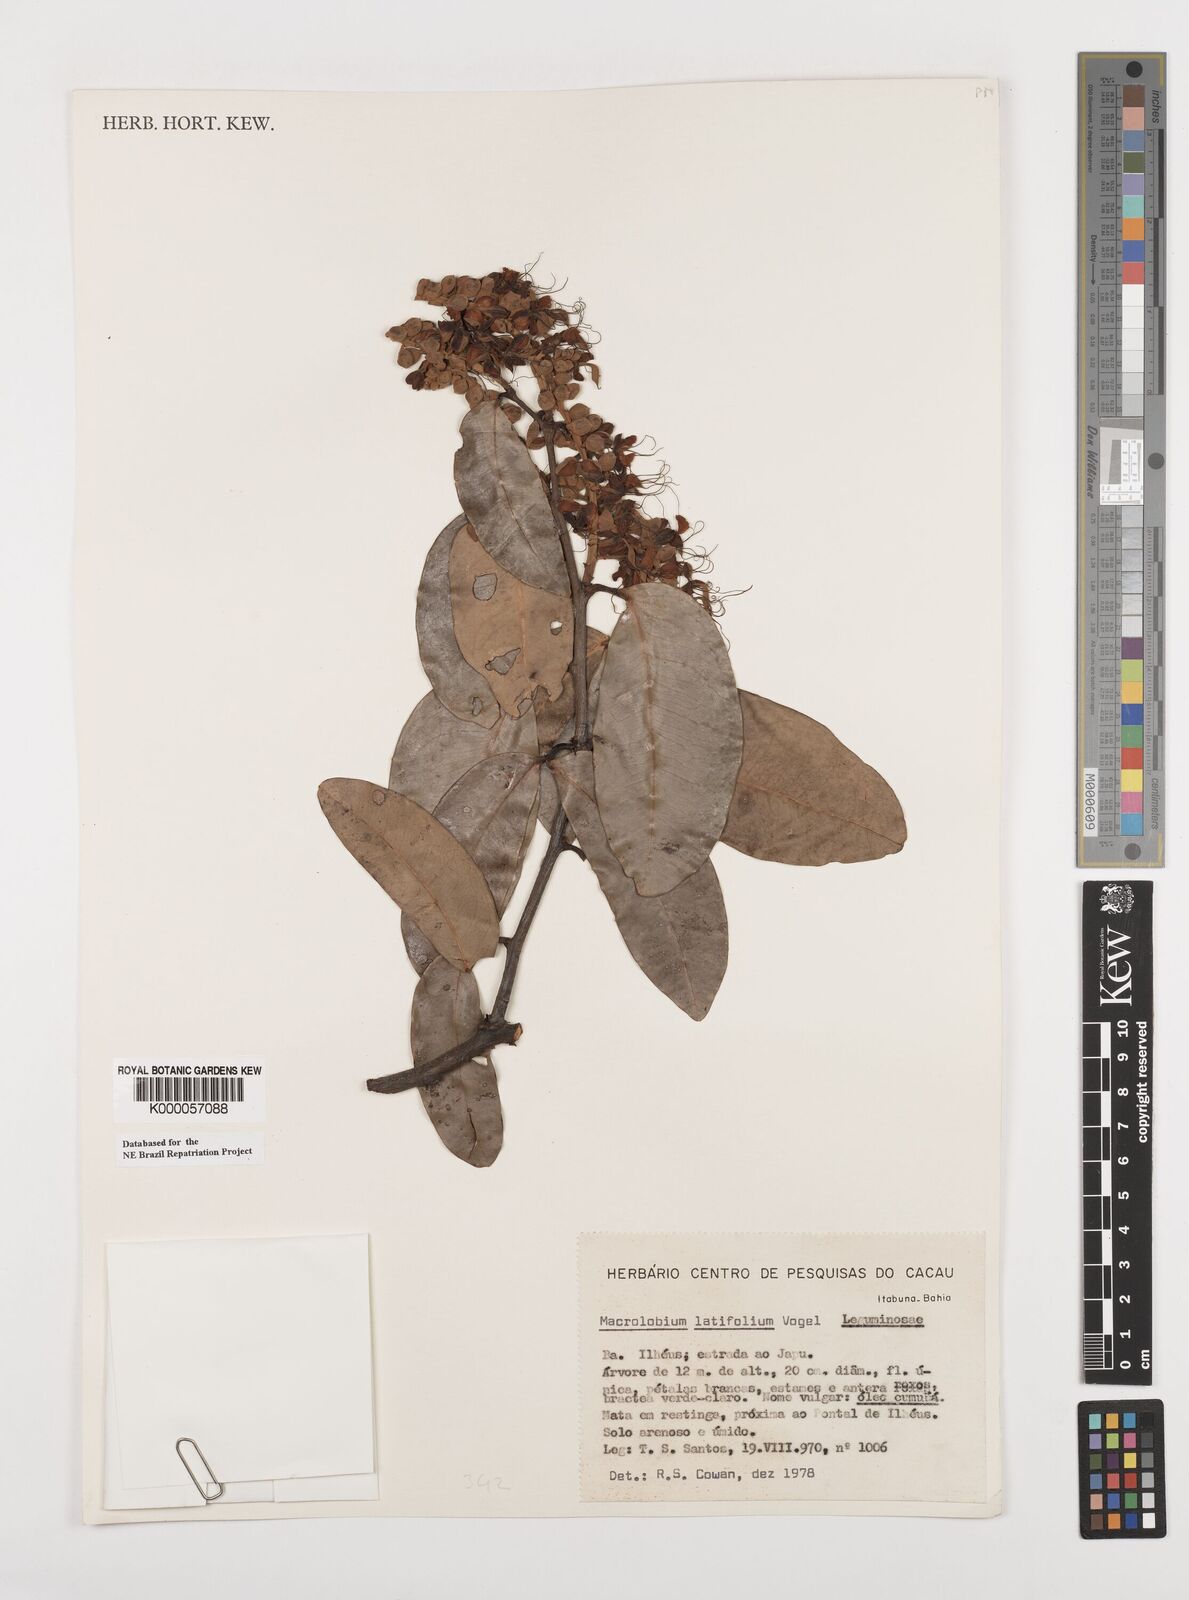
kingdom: Plantae
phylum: Tracheophyta
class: Magnoliopsida
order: Fabales
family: Fabaceae
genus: Macrolobium
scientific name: Macrolobium latifolium
